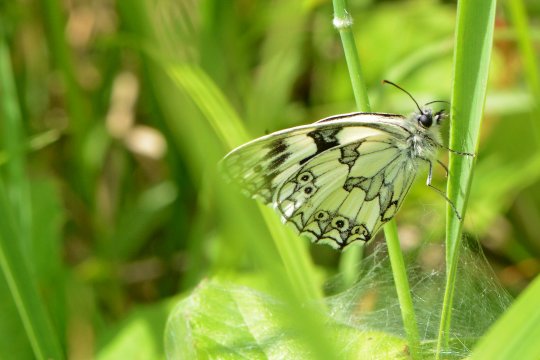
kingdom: Animalia
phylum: Arthropoda
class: Insecta
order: Lepidoptera
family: Nymphalidae
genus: Melanargia
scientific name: Melanargia galathea
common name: Marbled White
